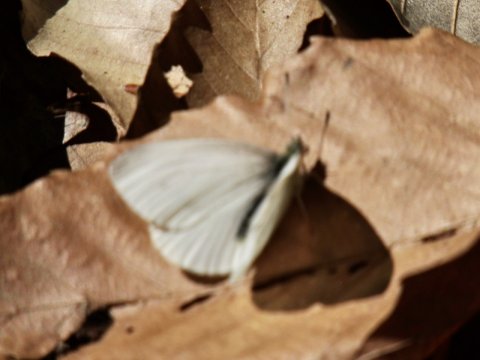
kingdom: Animalia
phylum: Arthropoda
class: Insecta
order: Lepidoptera
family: Pieridae
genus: Pieris
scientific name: Pieris virginiensis
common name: West Virginia White
